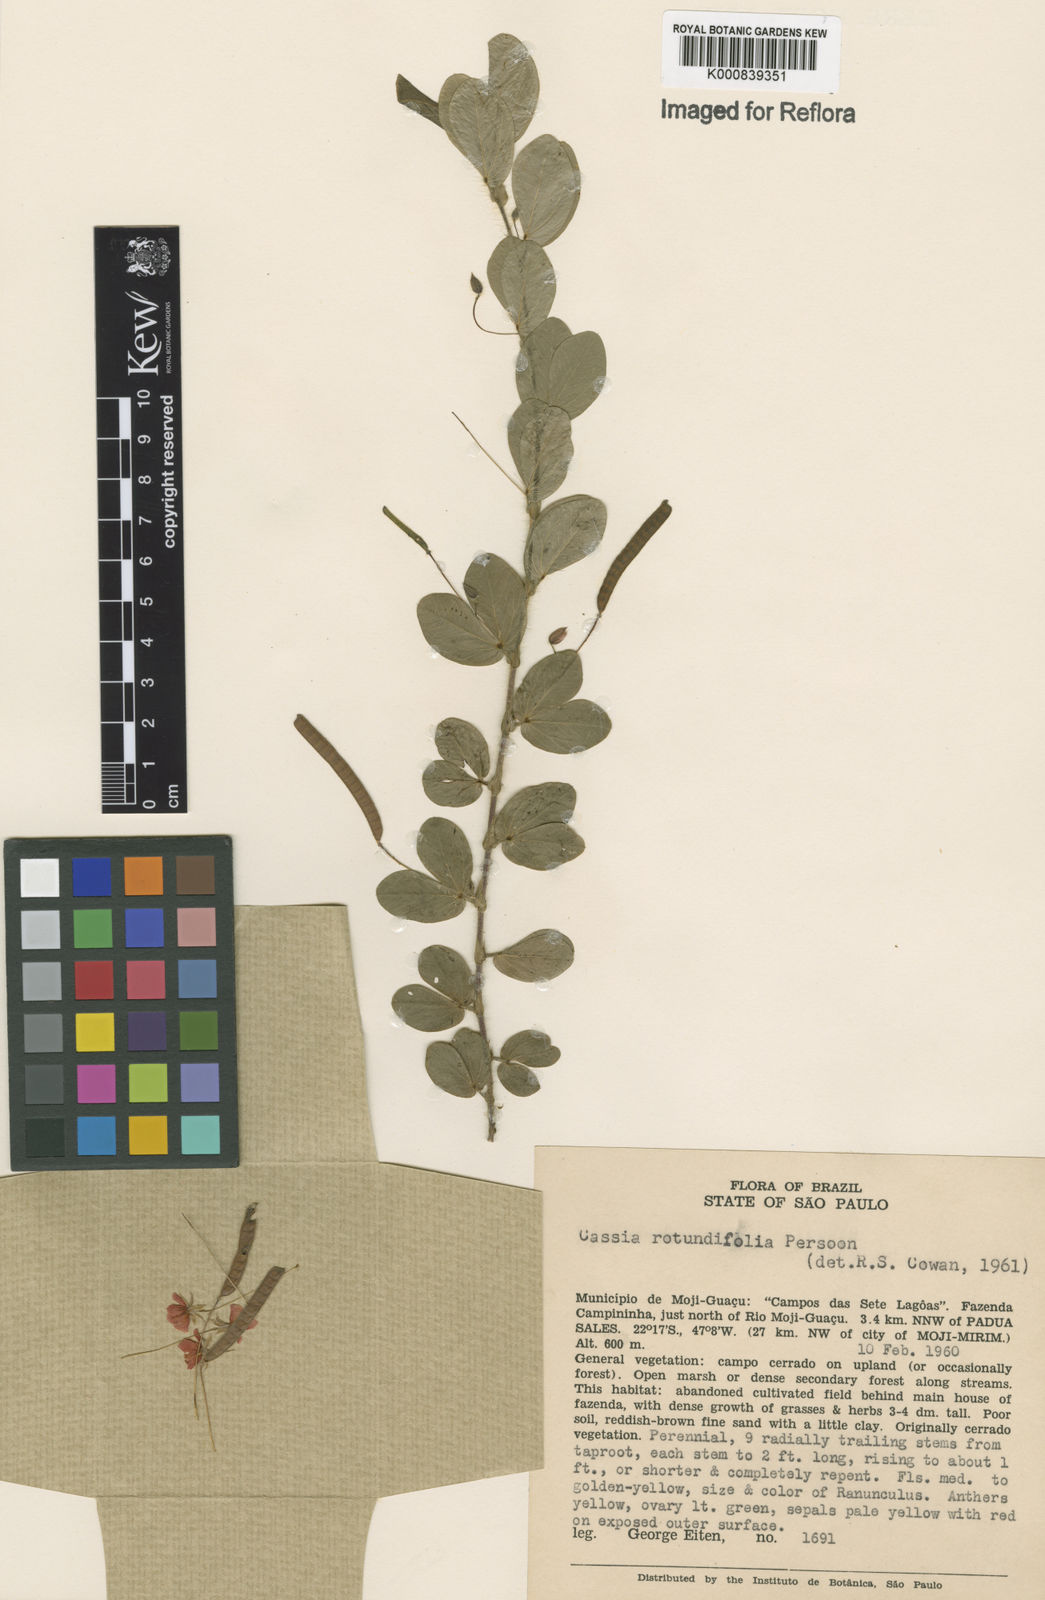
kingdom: Plantae
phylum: Tracheophyta
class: Magnoliopsida
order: Fabales
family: Fabaceae
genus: Chamaecrista
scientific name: Chamaecrista rotundifolia
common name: Round-leaf cassia
